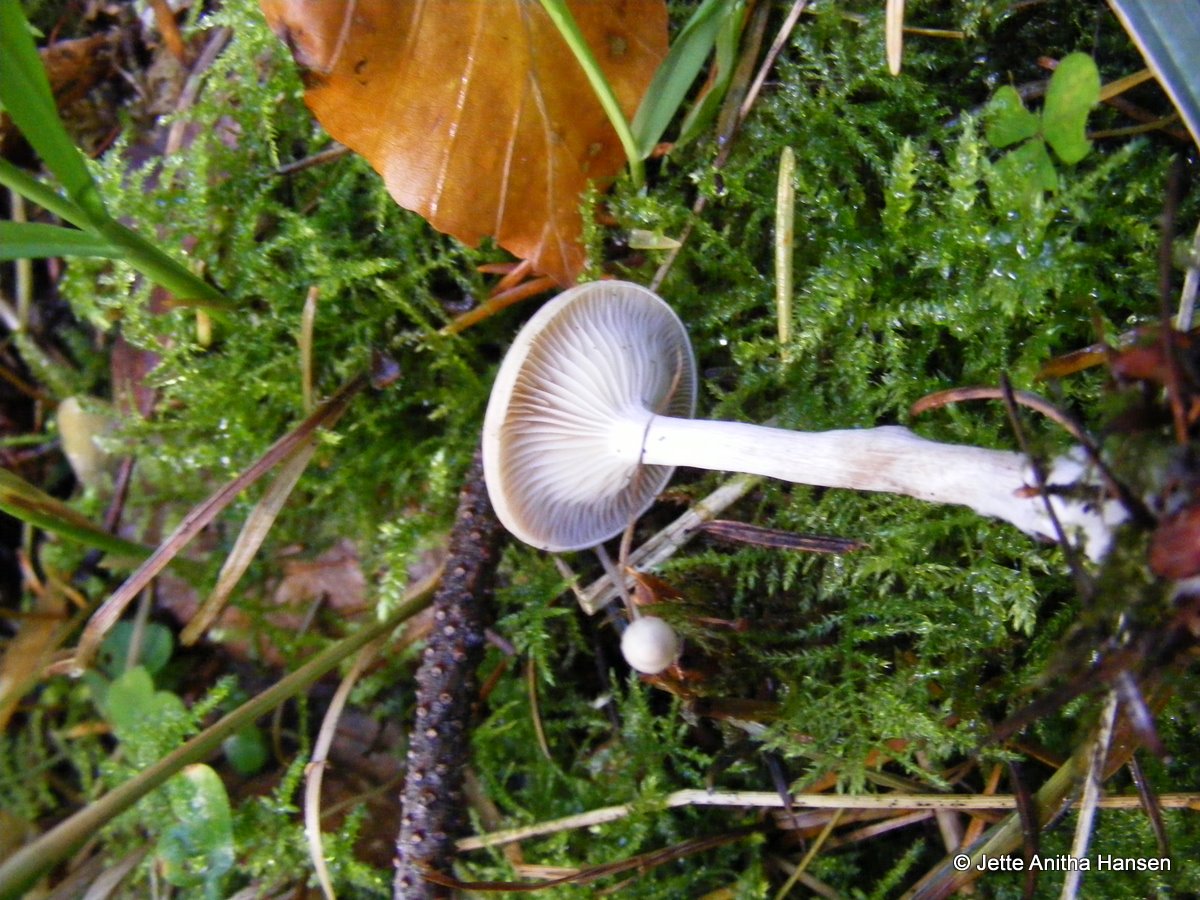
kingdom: Fungi
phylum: Basidiomycota
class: Agaricomycetes
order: Agaricales
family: Tricholomataceae
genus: Clitocybe
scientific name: Clitocybe metachroa
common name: grå tragthat
